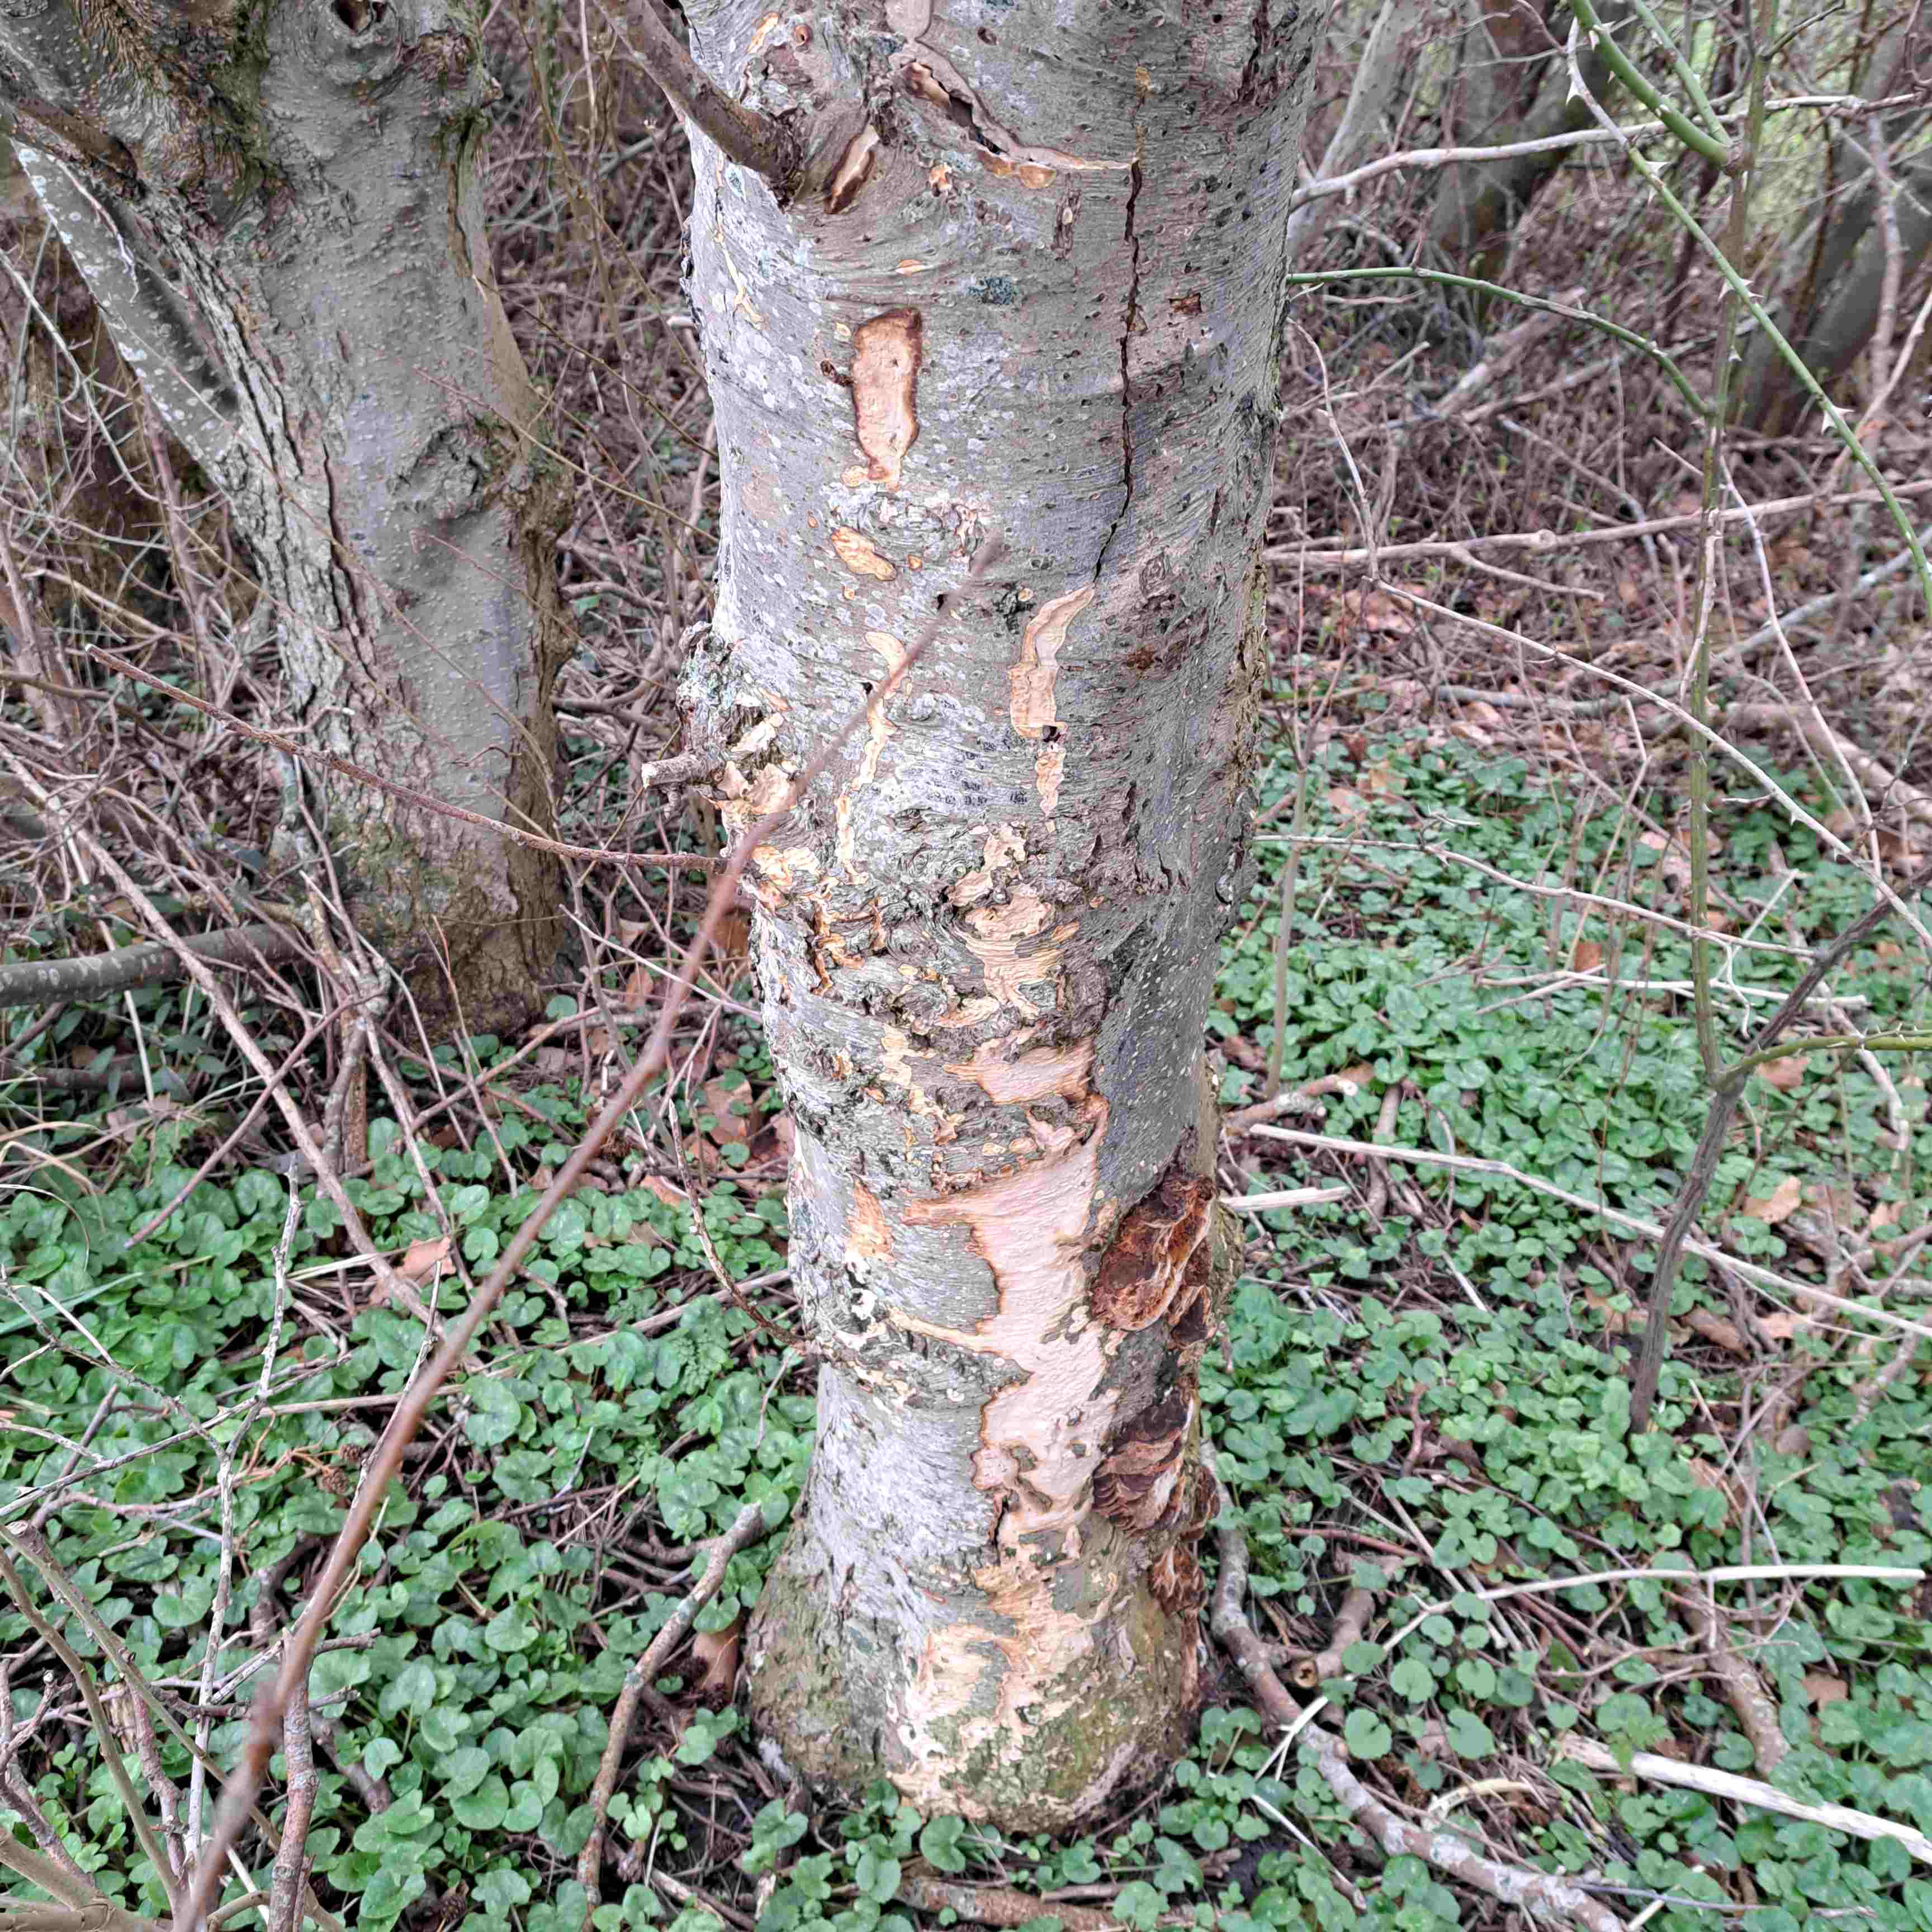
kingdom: Fungi
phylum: Basidiomycota
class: Agaricomycetes
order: Hymenochaetales
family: Hymenochaetaceae
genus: Xanthoporia
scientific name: Xanthoporia radiata
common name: elle-spejlporesvamp
